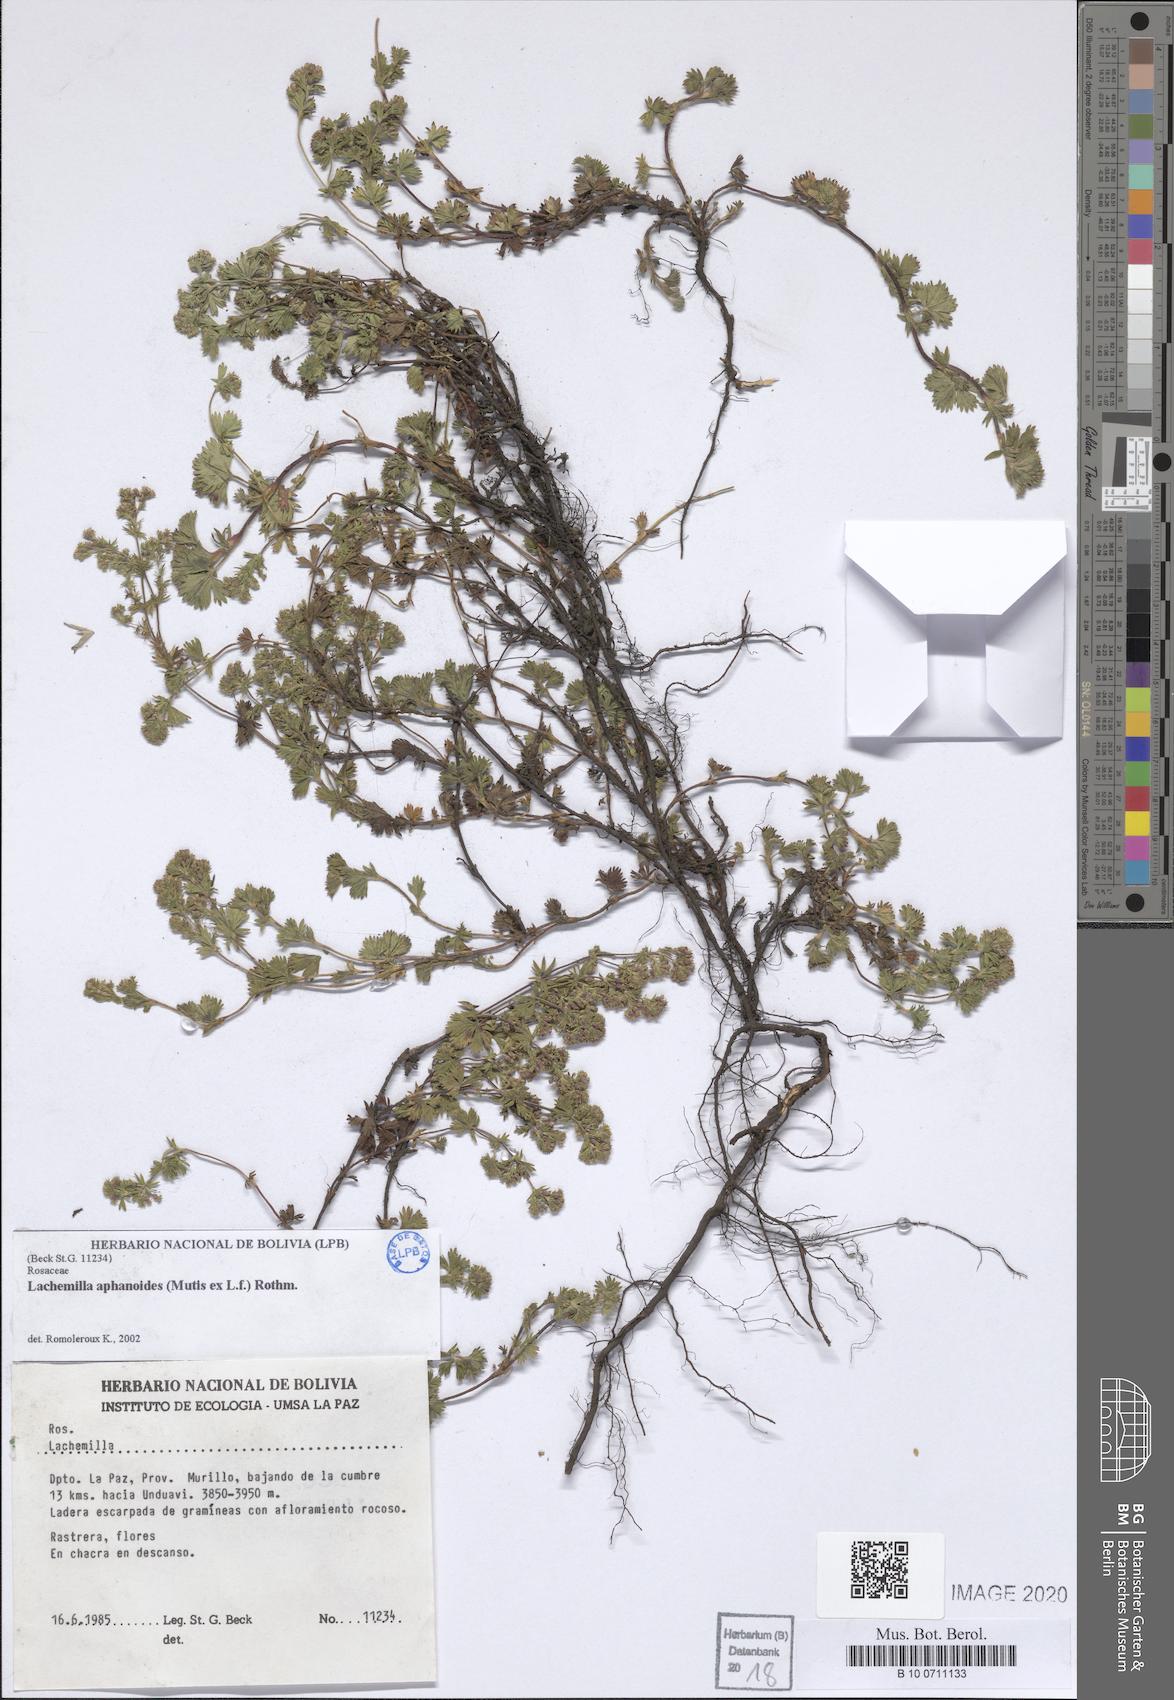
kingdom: Plantae
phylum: Tracheophyta
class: Magnoliopsida
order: Rosales
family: Rosaceae
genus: Lachemilla
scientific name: Lachemilla aphanoides
